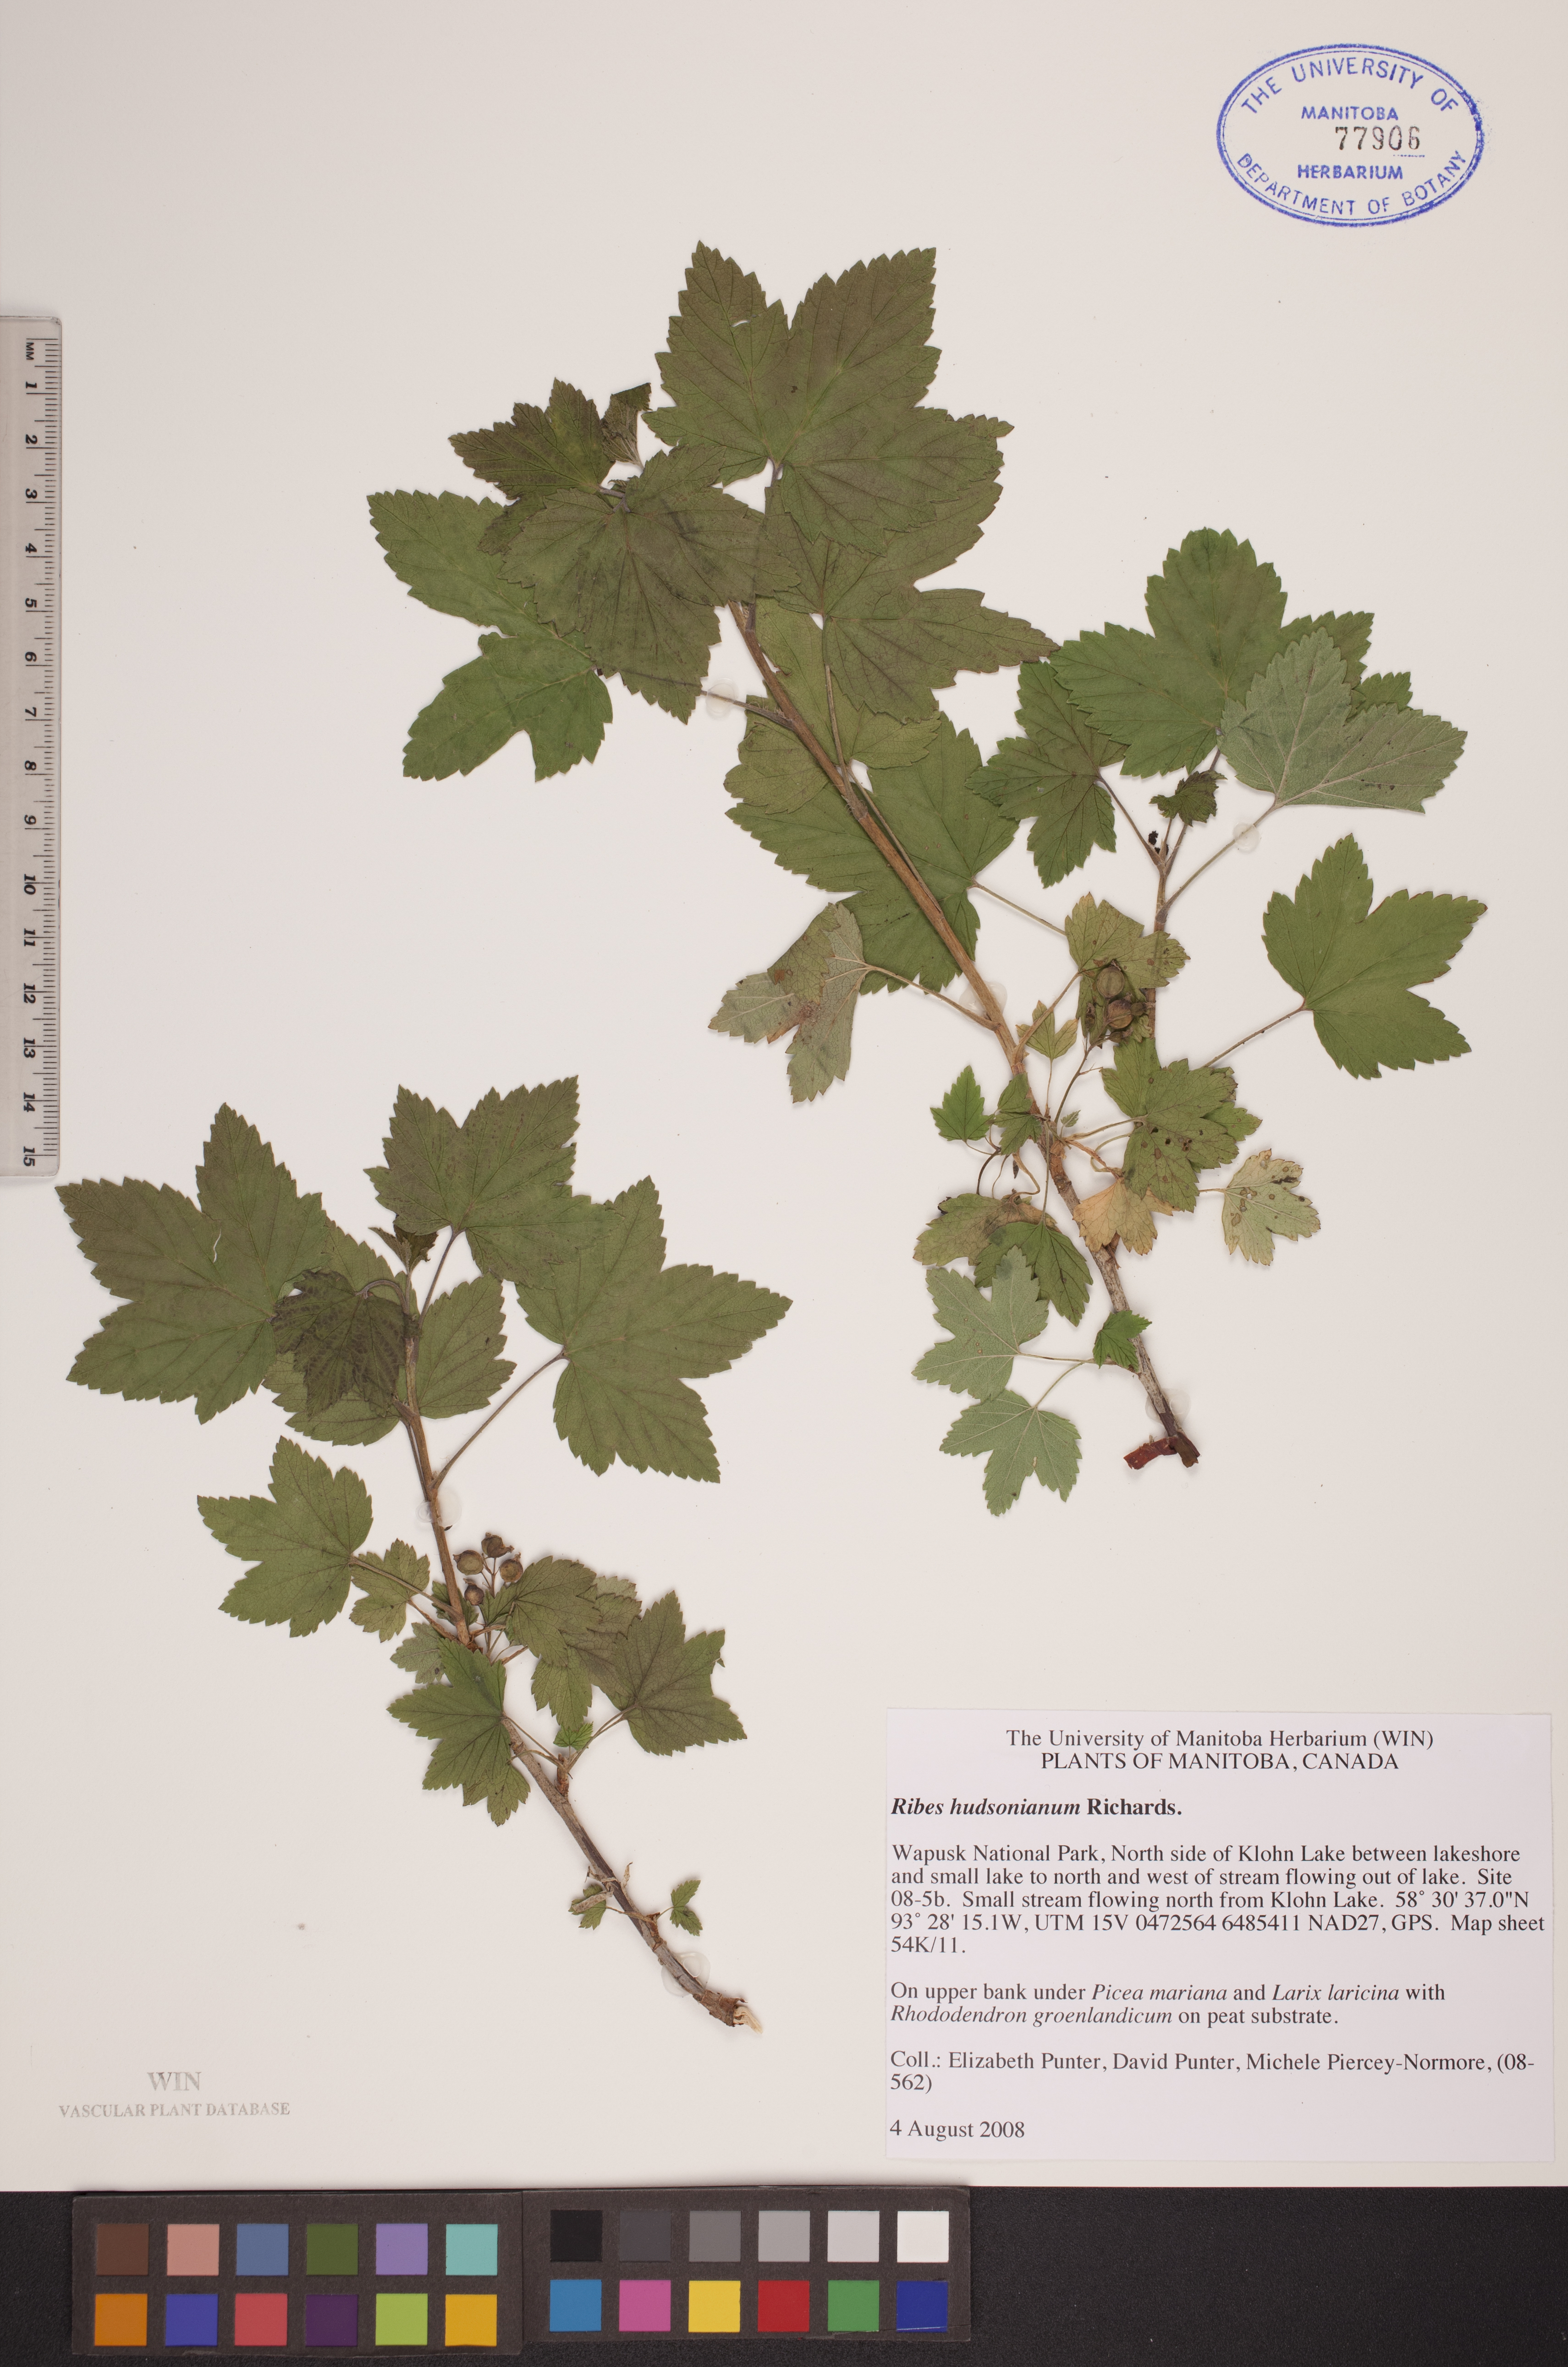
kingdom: Plantae
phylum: Tracheophyta
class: Magnoliopsida
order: Saxifragales
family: Grossulariaceae
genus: Ribes
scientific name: Ribes hudsonianum
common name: Northern black currant
